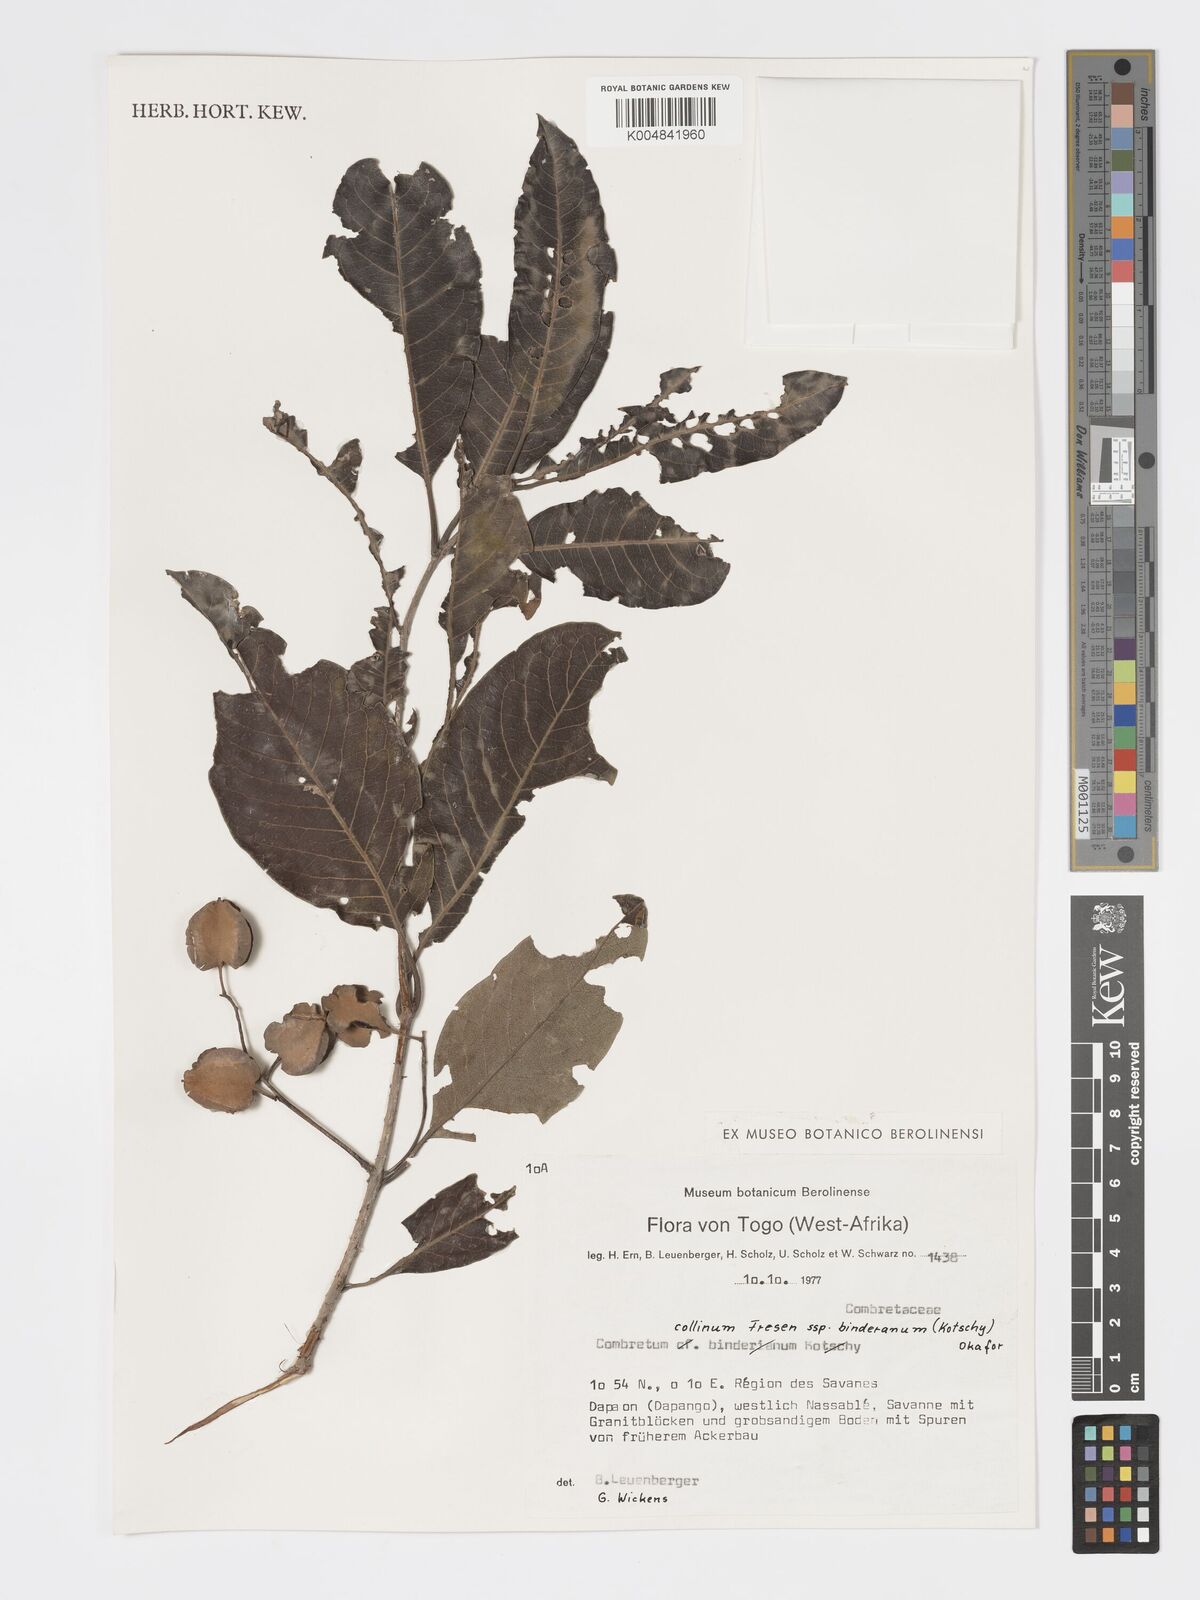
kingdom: Plantae
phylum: Tracheophyta
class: Magnoliopsida
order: Myrtales
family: Combretaceae
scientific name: Combretaceae
